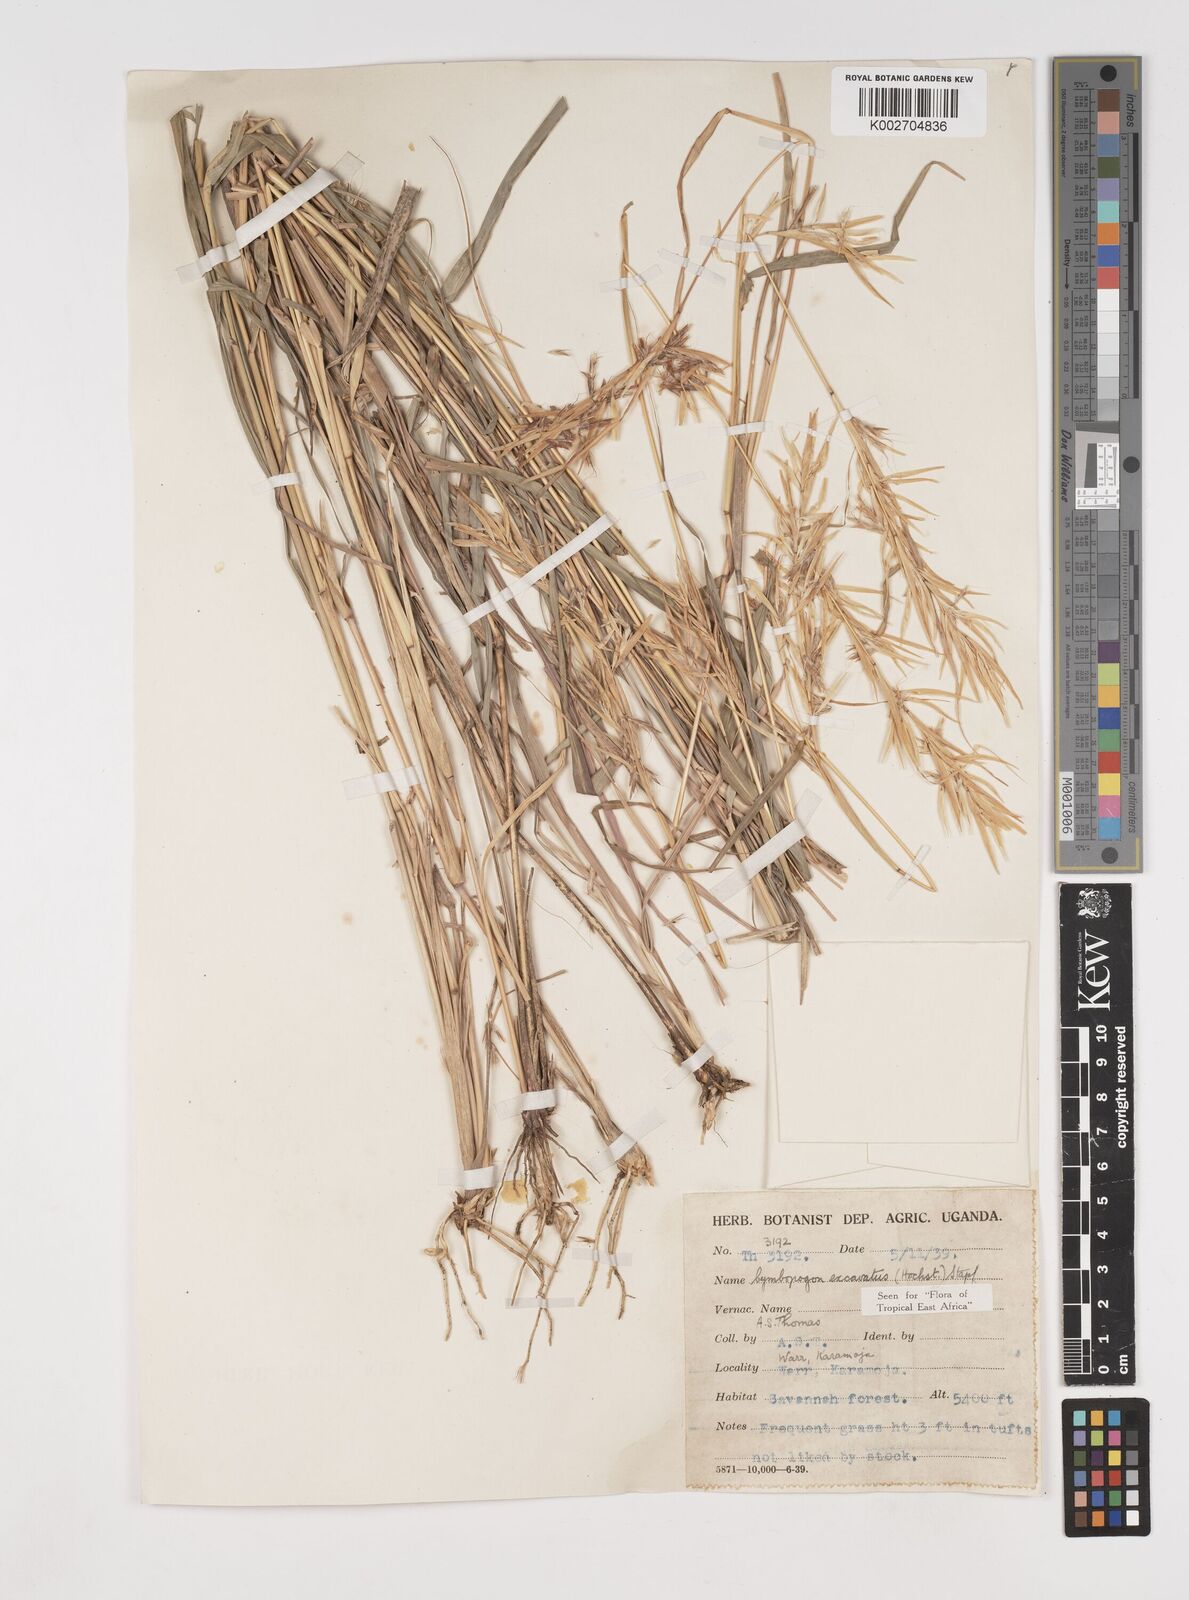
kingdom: Plantae
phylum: Tracheophyta
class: Liliopsida
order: Poales
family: Poaceae
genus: Cymbopogon
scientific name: Cymbopogon caesius
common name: Kachi grass
